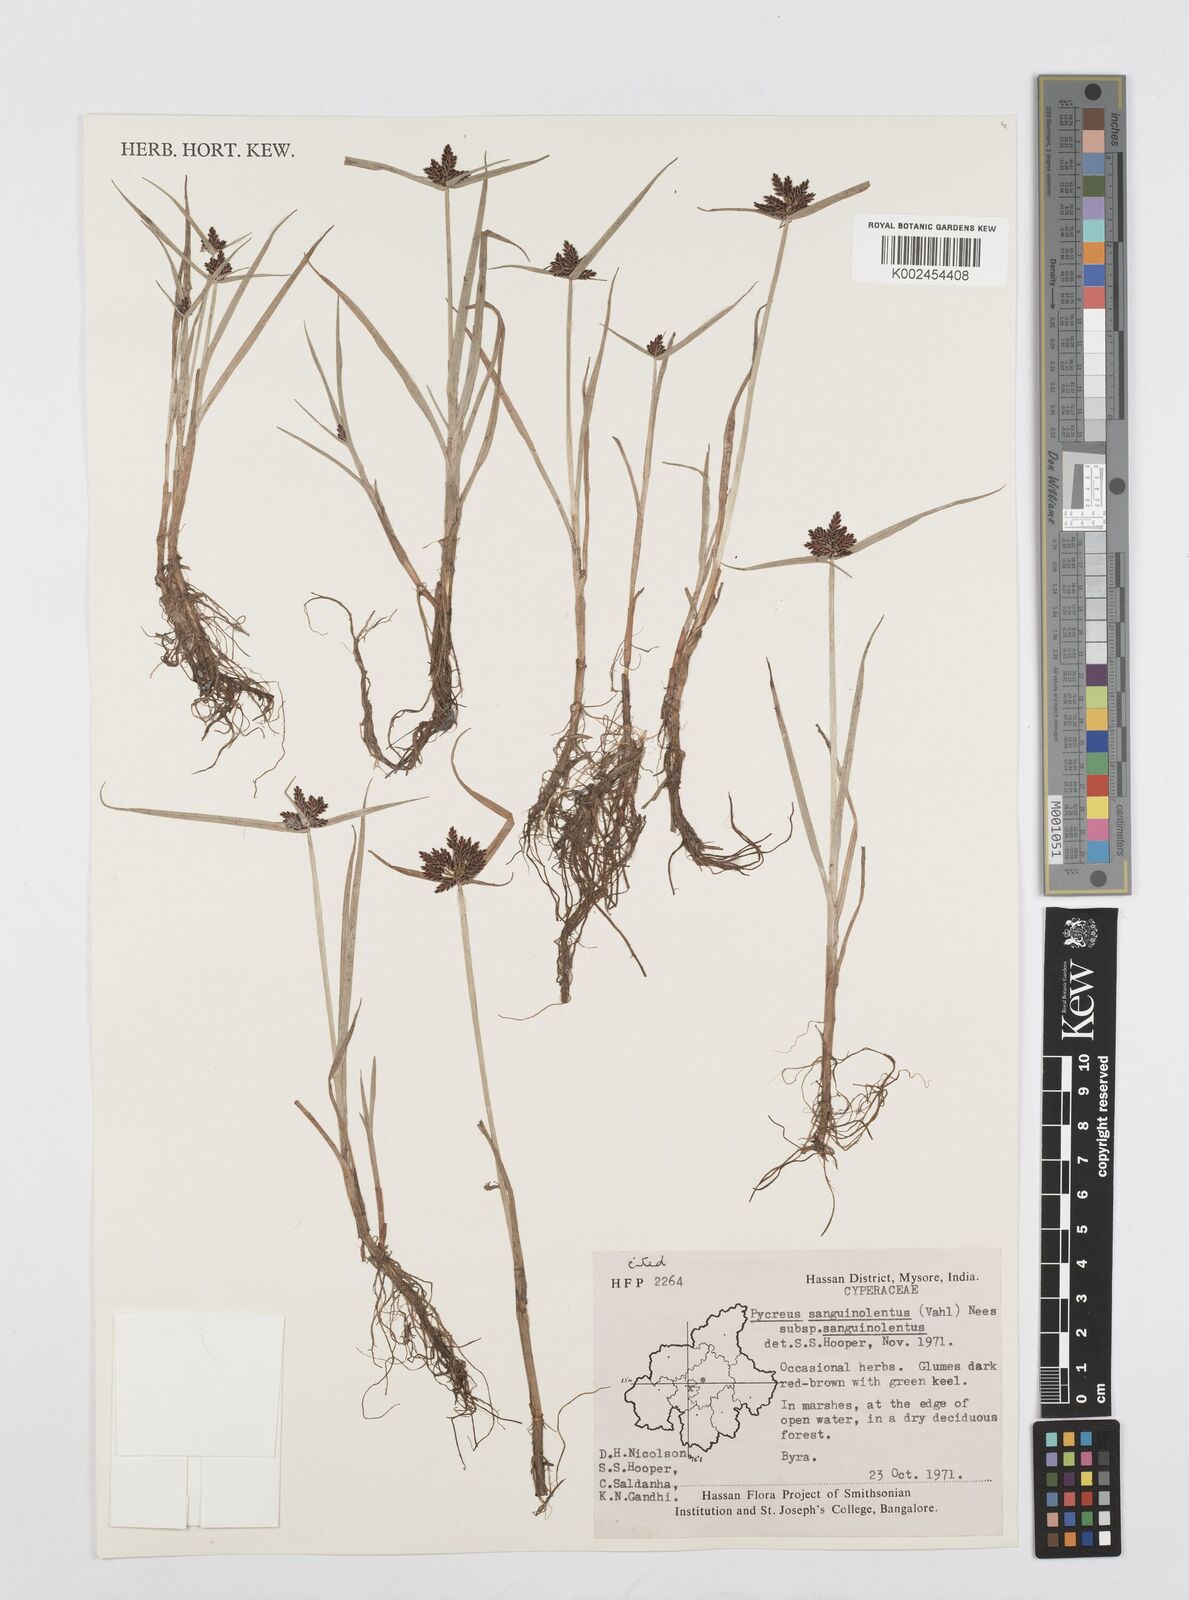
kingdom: Plantae
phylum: Tracheophyta
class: Liliopsida
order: Poales
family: Cyperaceae
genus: Cyperus
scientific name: Cyperus sanguinolentus
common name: Purpleglume flatsedge
